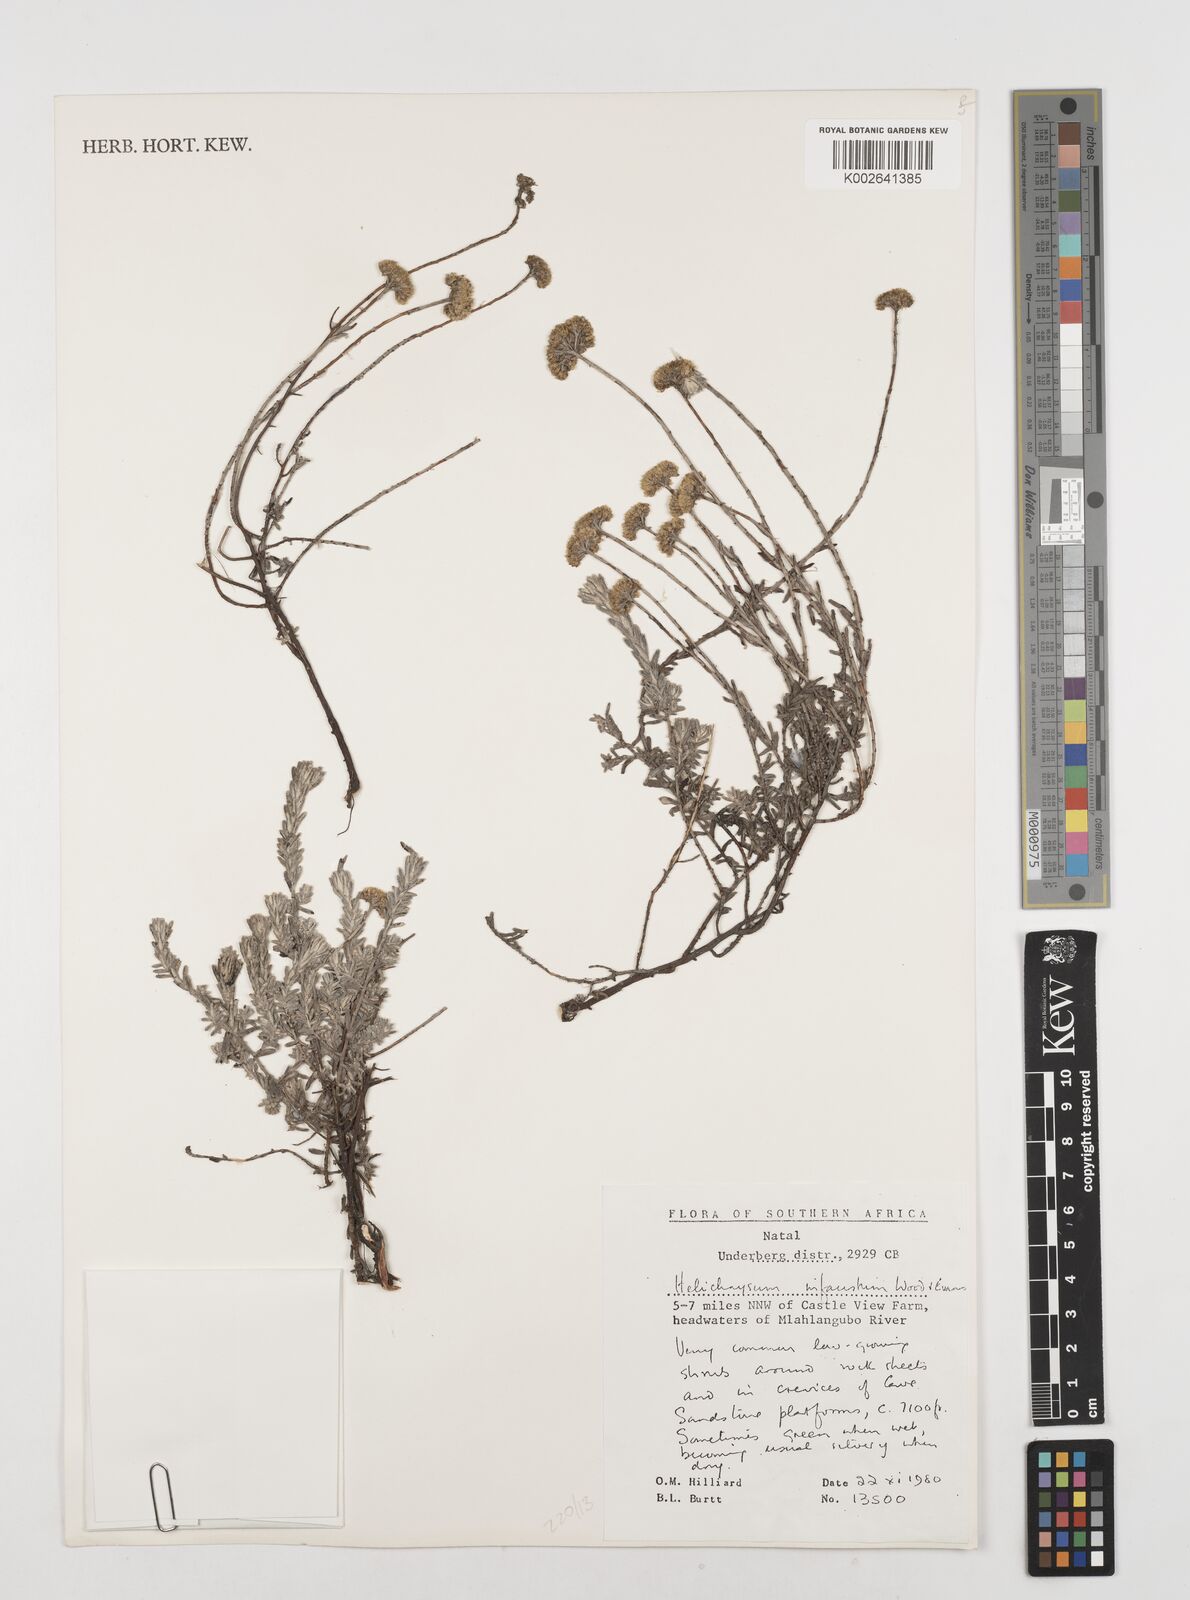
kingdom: Plantae
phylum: Tracheophyta
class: Magnoliopsida
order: Asterales
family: Asteraceae
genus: Calomeria
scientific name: Calomeria infausta
